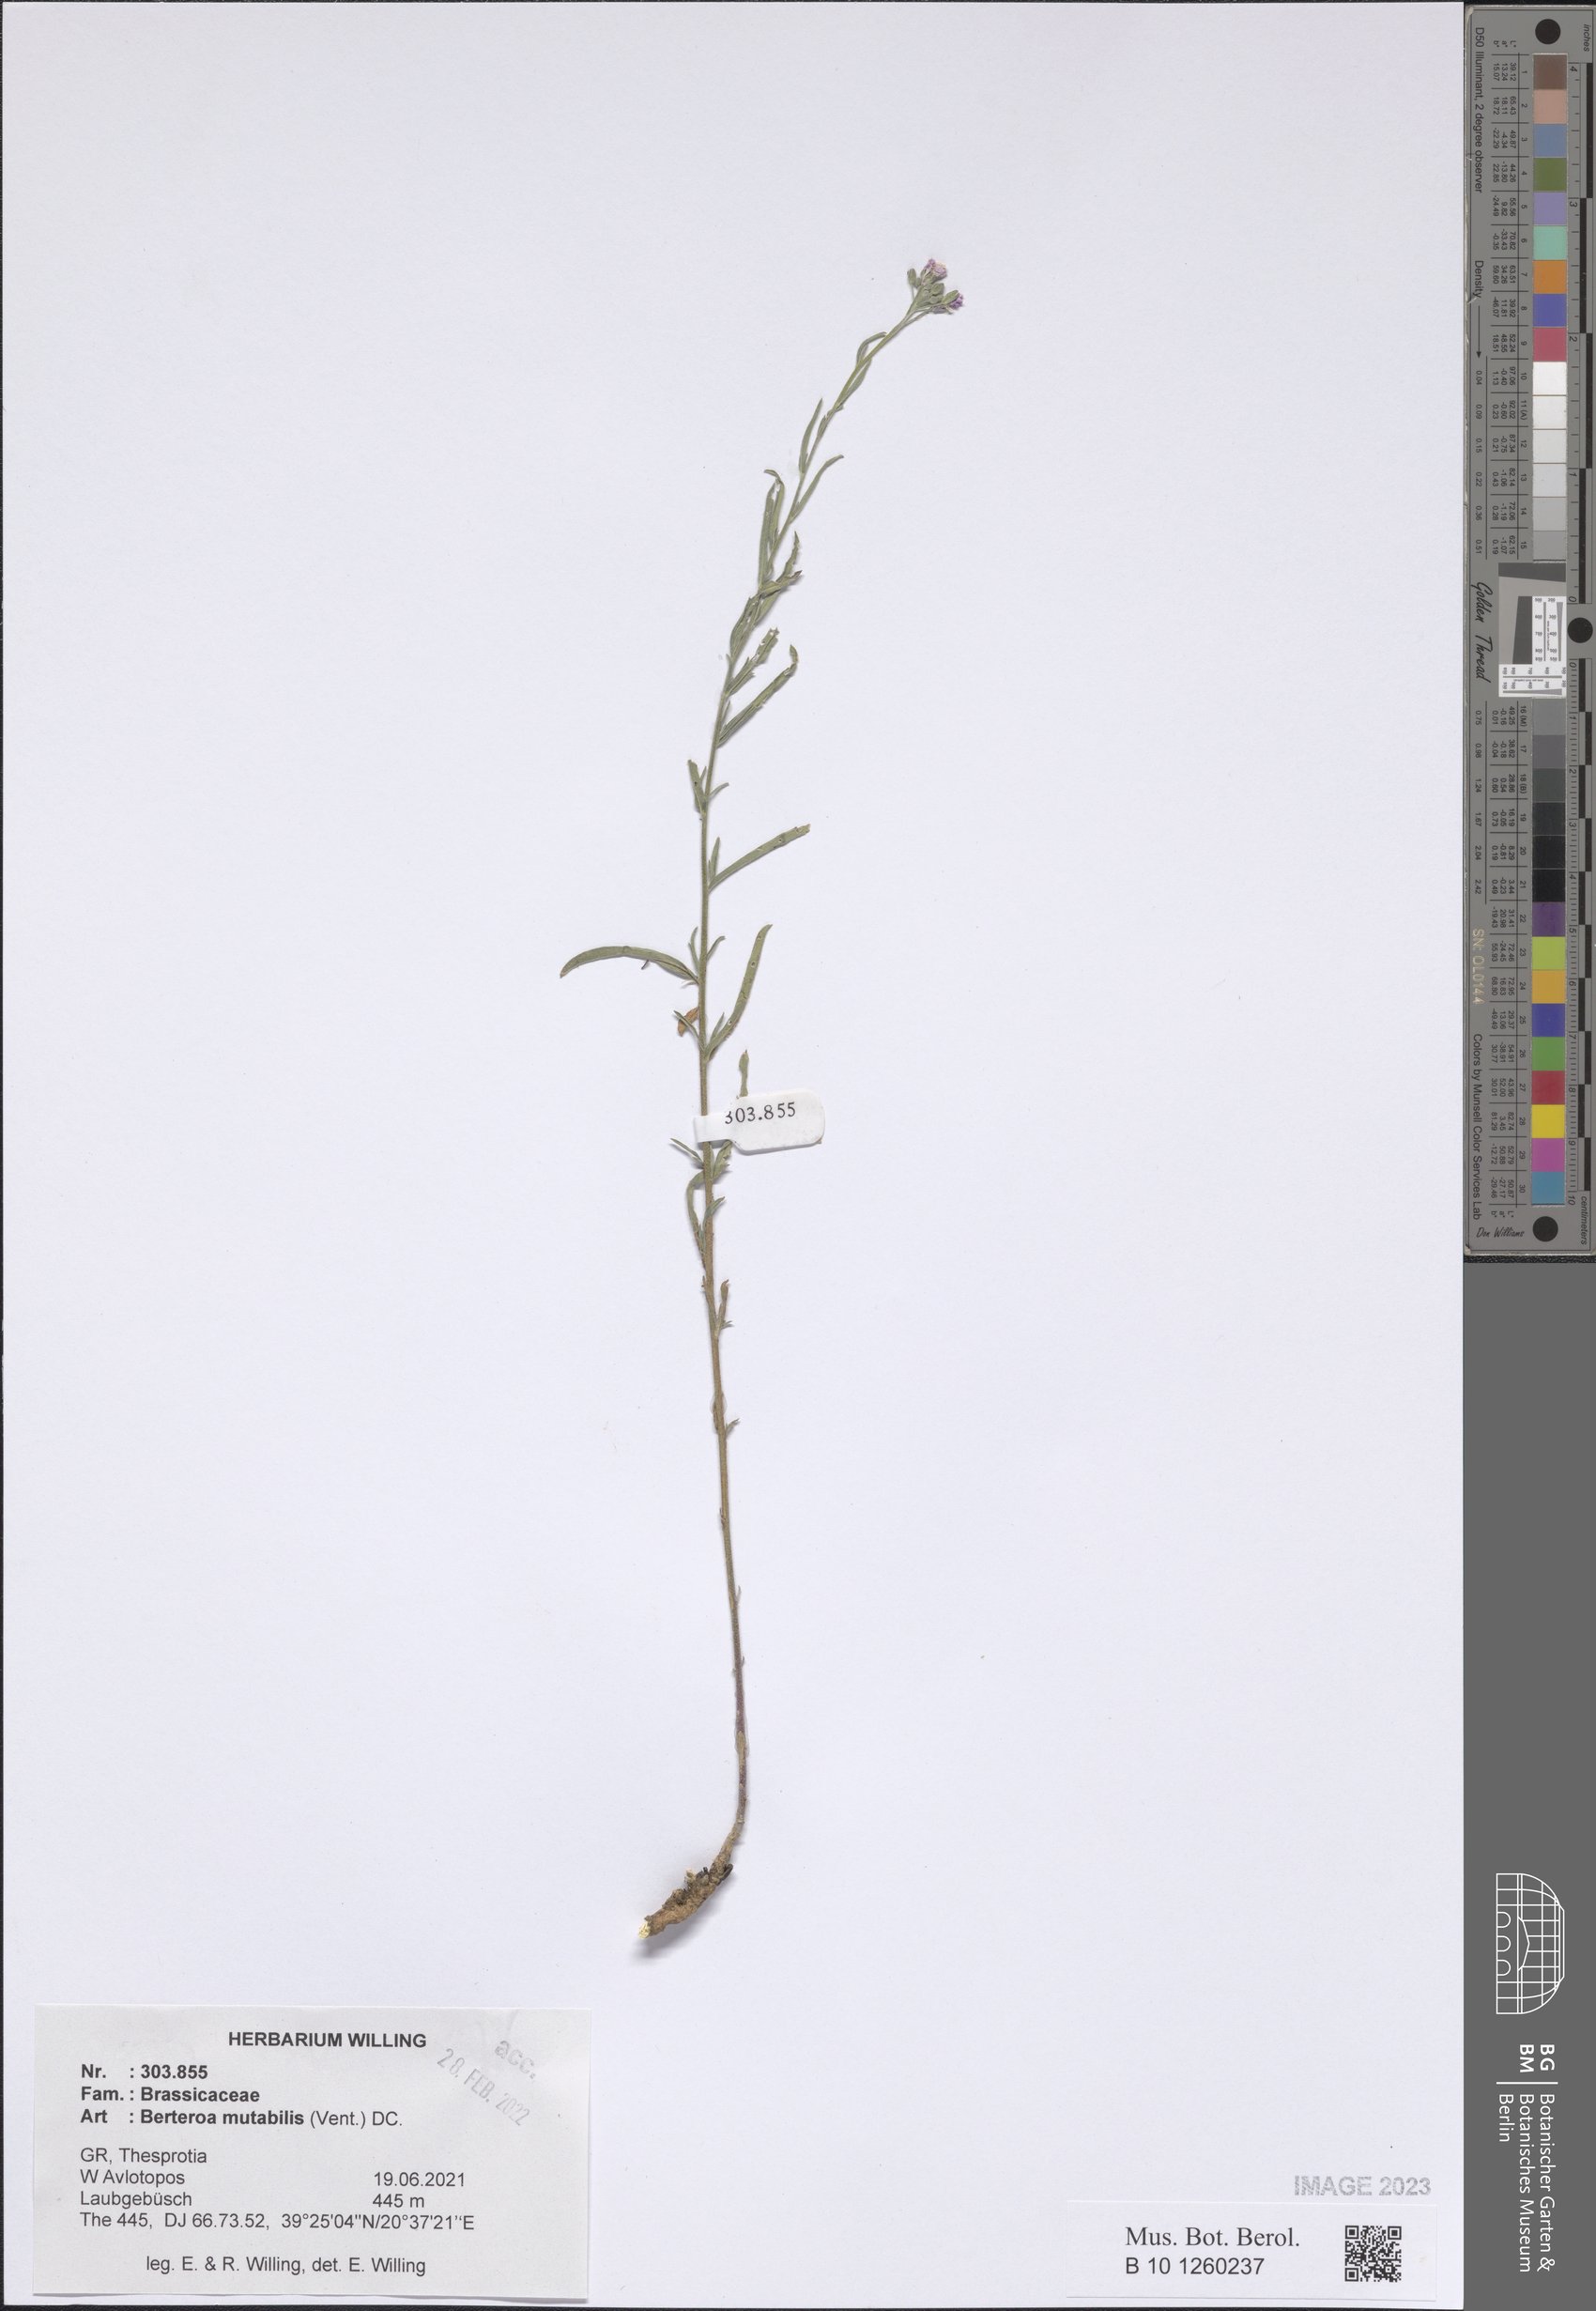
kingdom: Plantae
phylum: Tracheophyta
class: Magnoliopsida
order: Brassicales
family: Brassicaceae
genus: Berteroa
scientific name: Berteroa mutabilis
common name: Roadside false madwort
